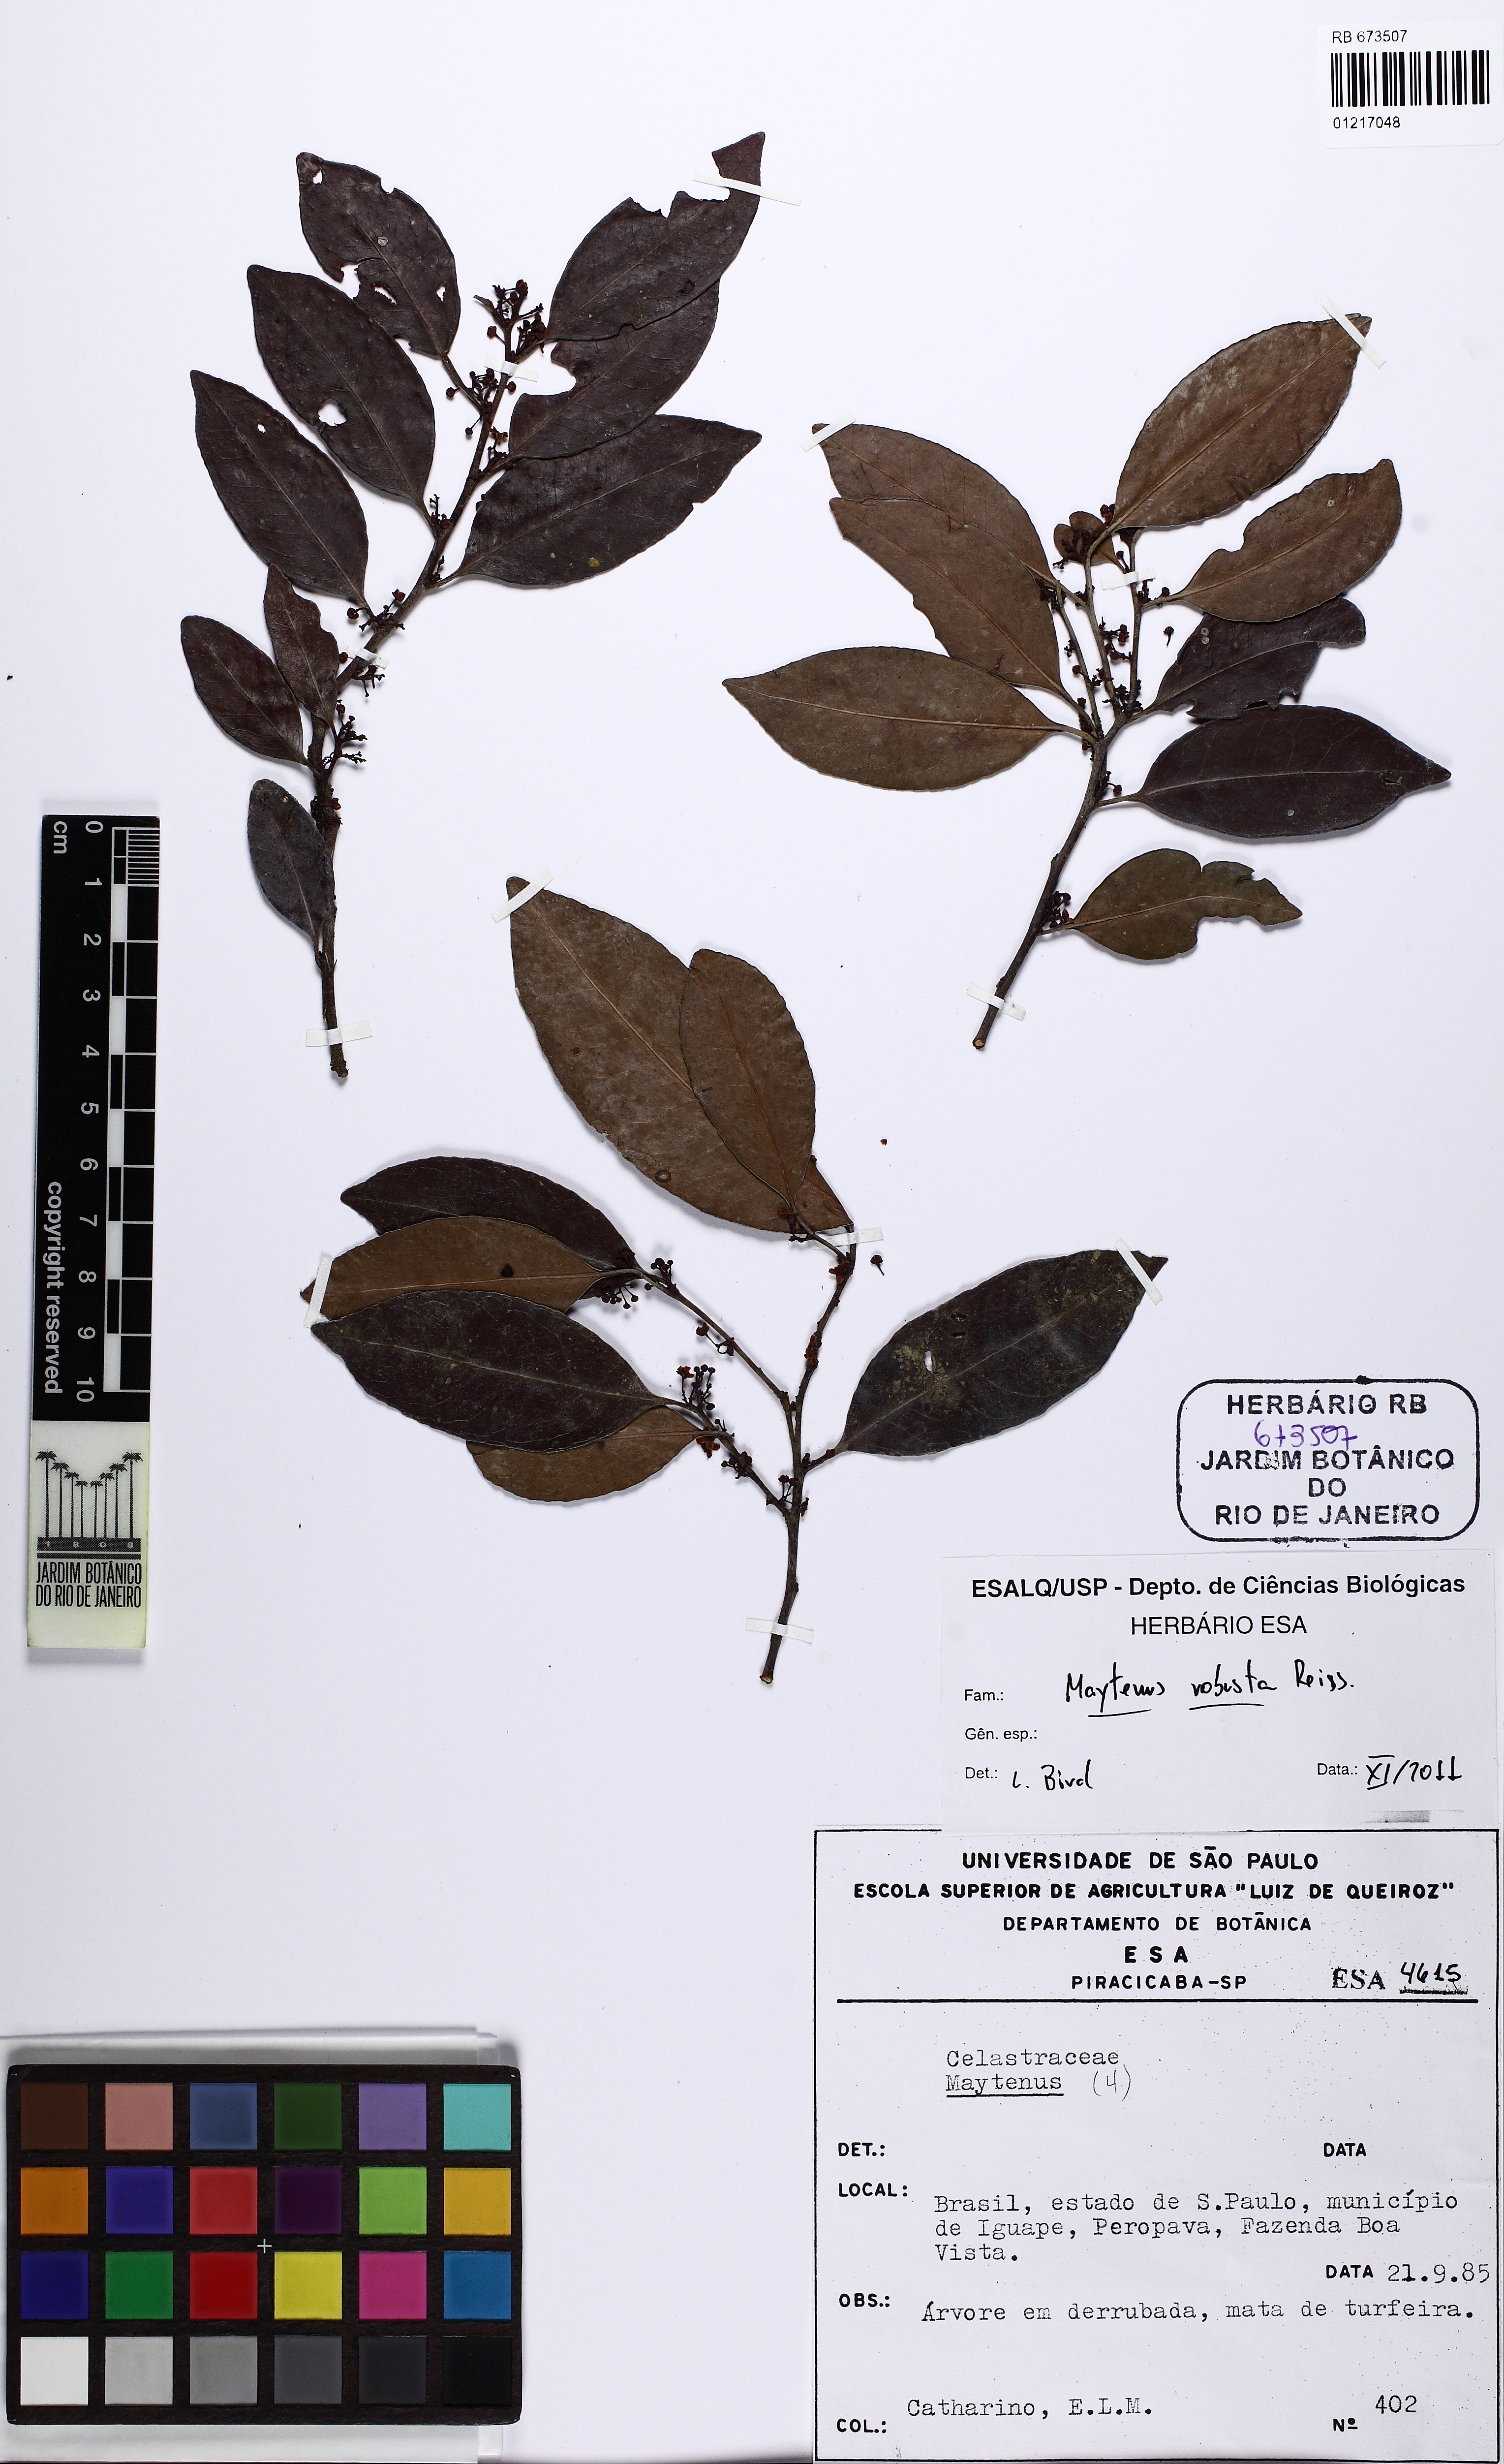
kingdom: Plantae
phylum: Tracheophyta
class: Magnoliopsida
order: Celastrales
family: Celastraceae
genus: Monteverdia
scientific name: Monteverdia robusta
